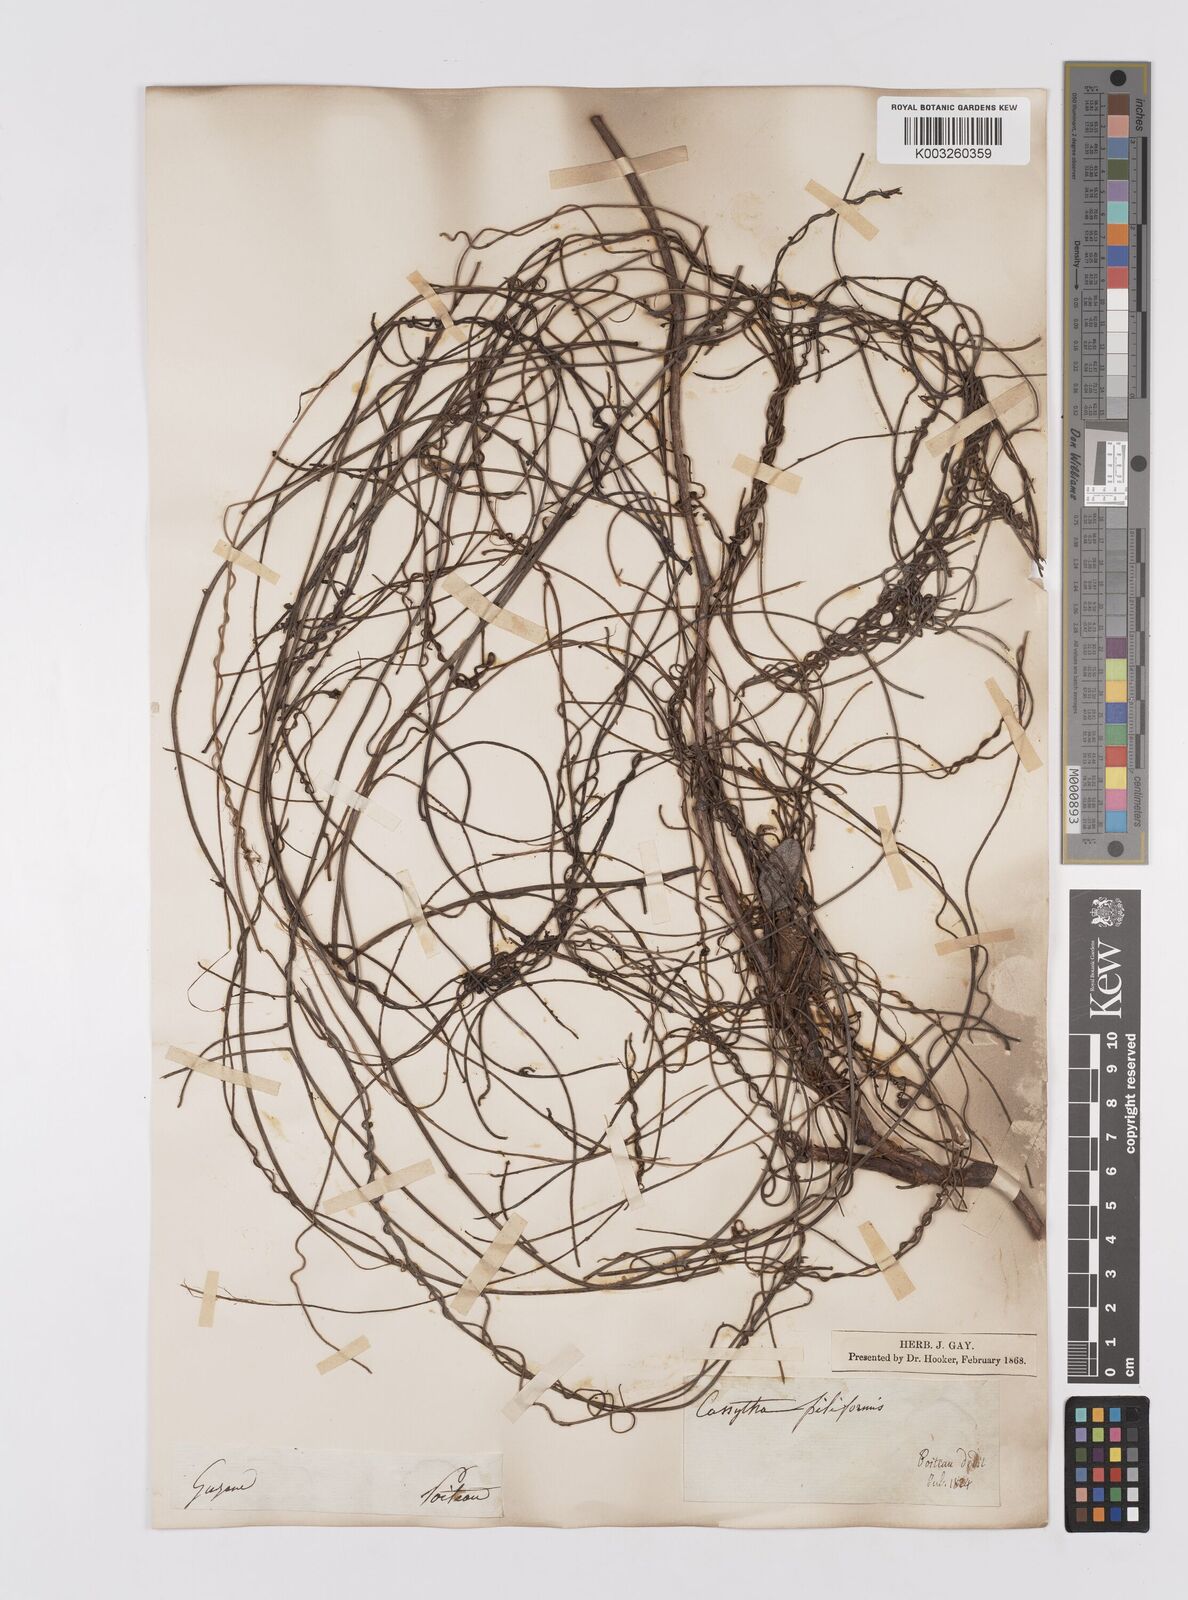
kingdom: Plantae
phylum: Tracheophyta
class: Magnoliopsida
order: Laurales
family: Lauraceae
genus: Cassytha
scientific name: Cassytha filiformis
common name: Dodder-laurel
